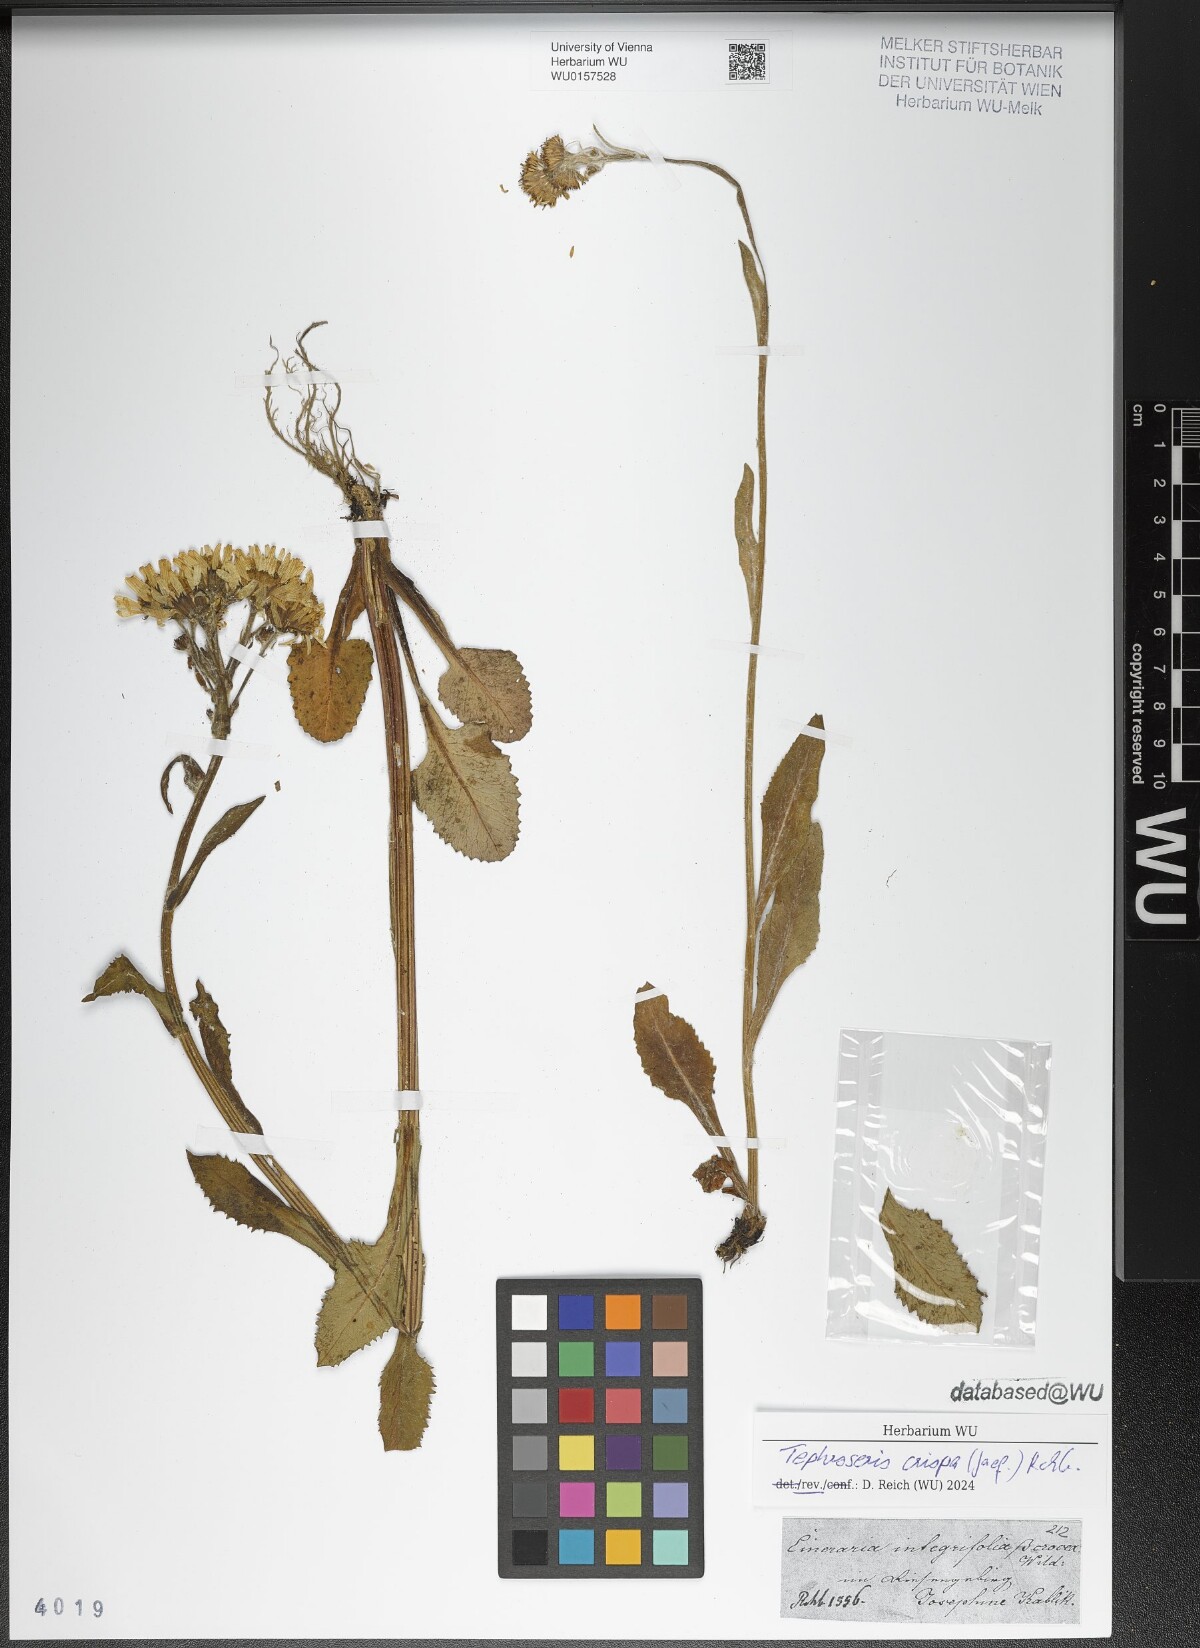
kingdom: Plantae
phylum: Tracheophyta
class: Magnoliopsida
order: Asterales
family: Asteraceae
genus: Tephroseris
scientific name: Tephroseris crispa
